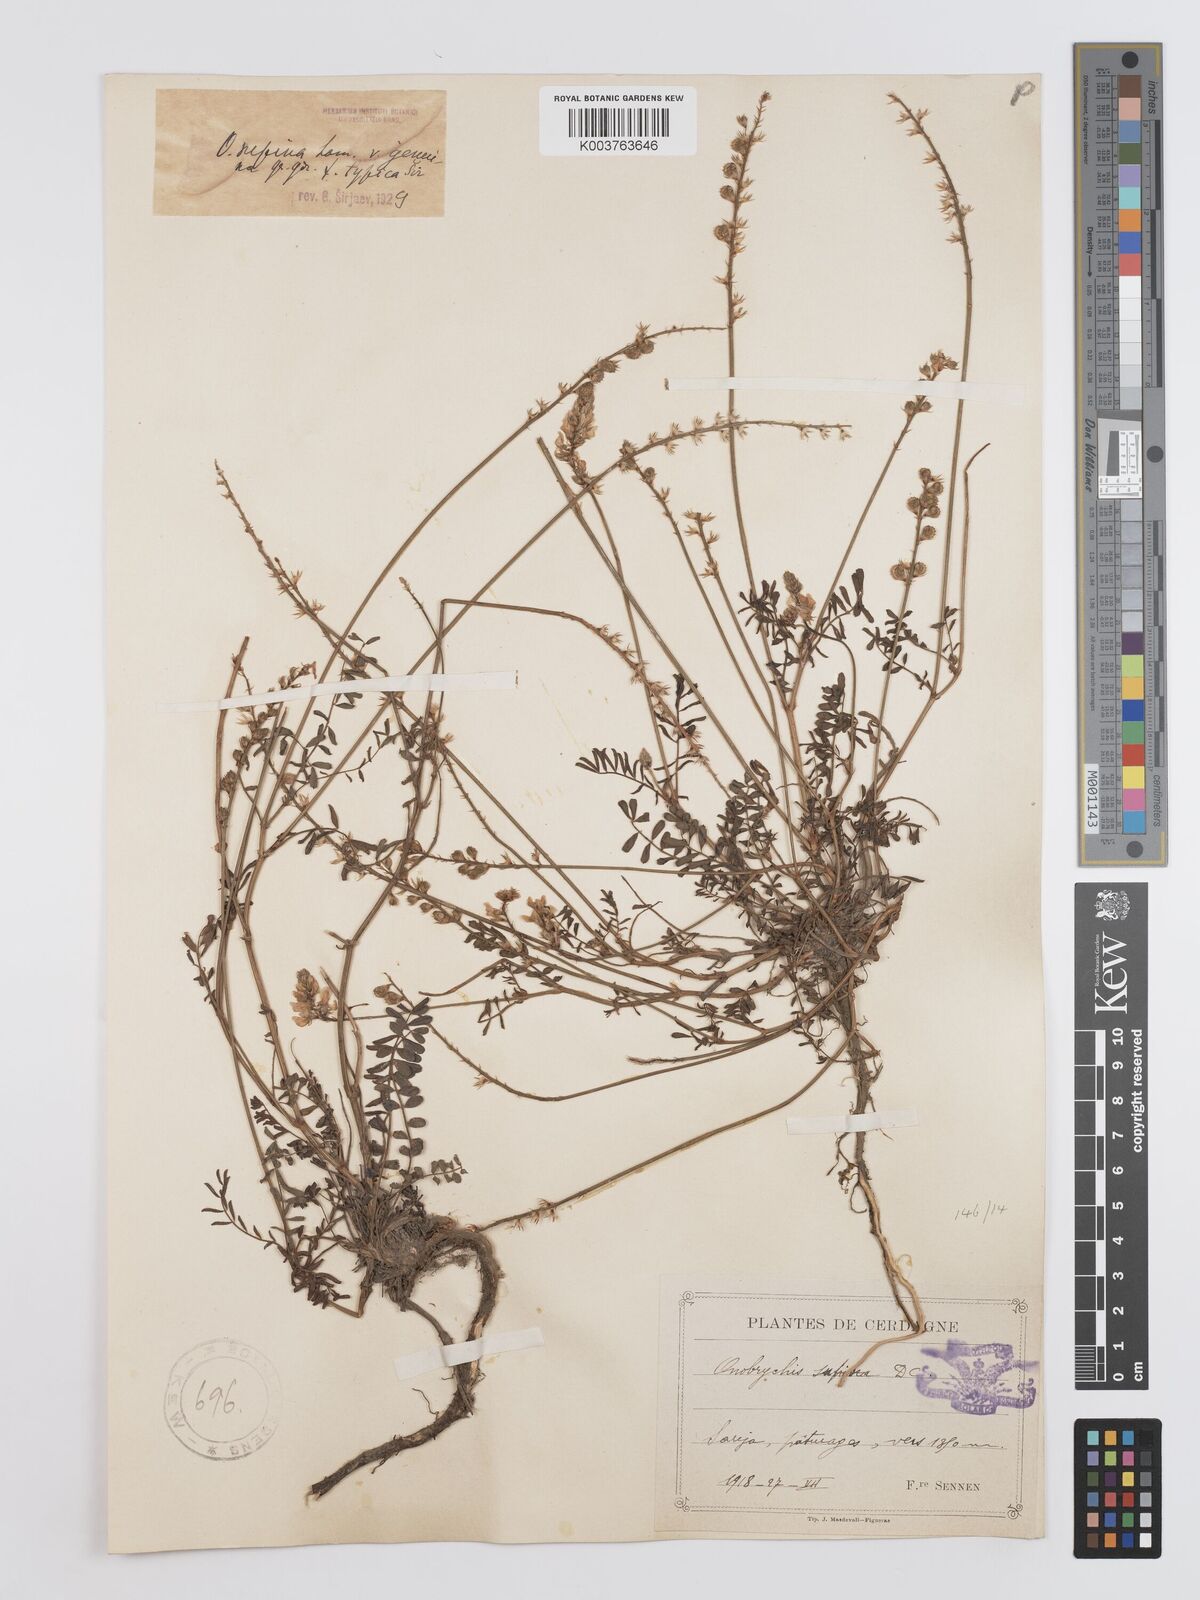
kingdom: Plantae
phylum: Tracheophyta
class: Magnoliopsida
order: Fabales
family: Fabaceae
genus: Onobrychis
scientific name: Onobrychis supina
